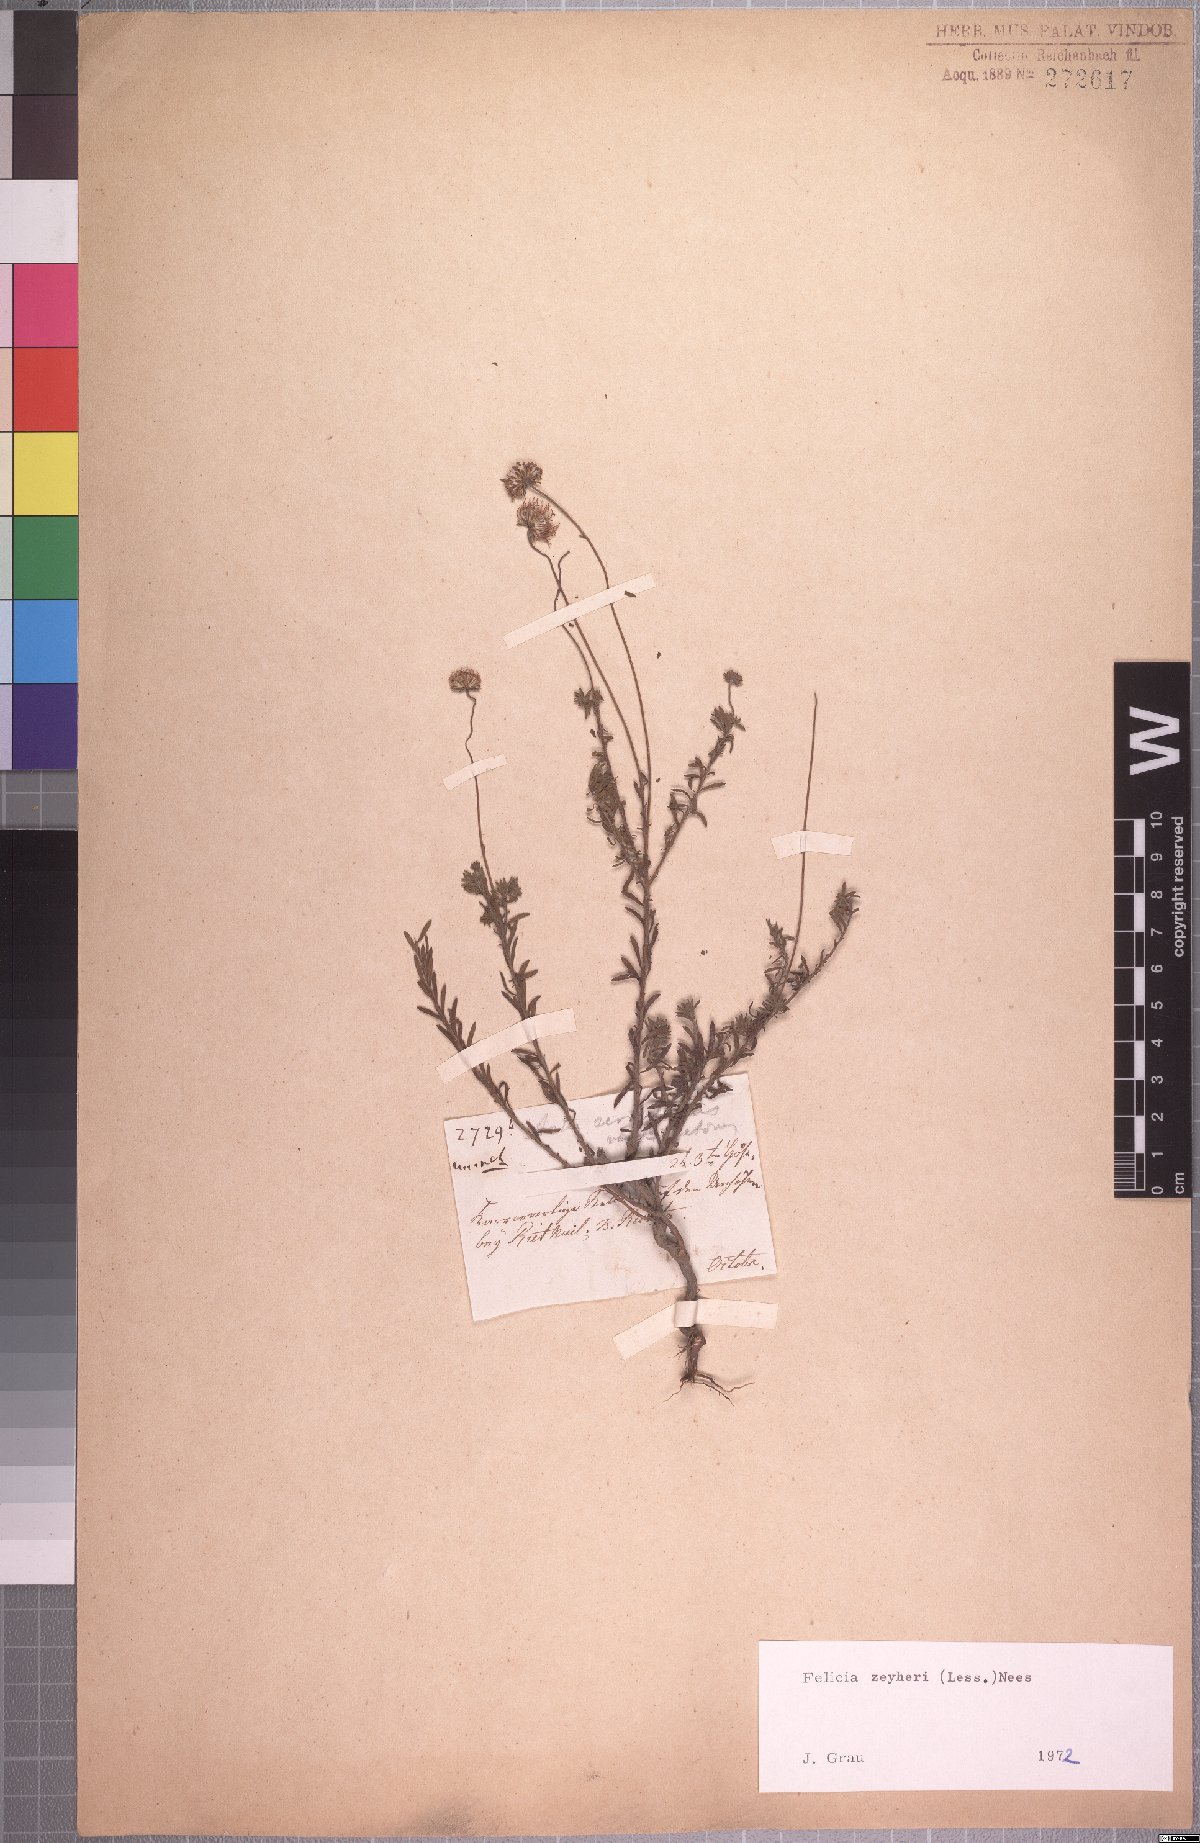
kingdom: Plantae
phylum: Tracheophyta
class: Magnoliopsida
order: Asterales
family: Asteraceae
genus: Felicia
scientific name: Felicia zeyheri
